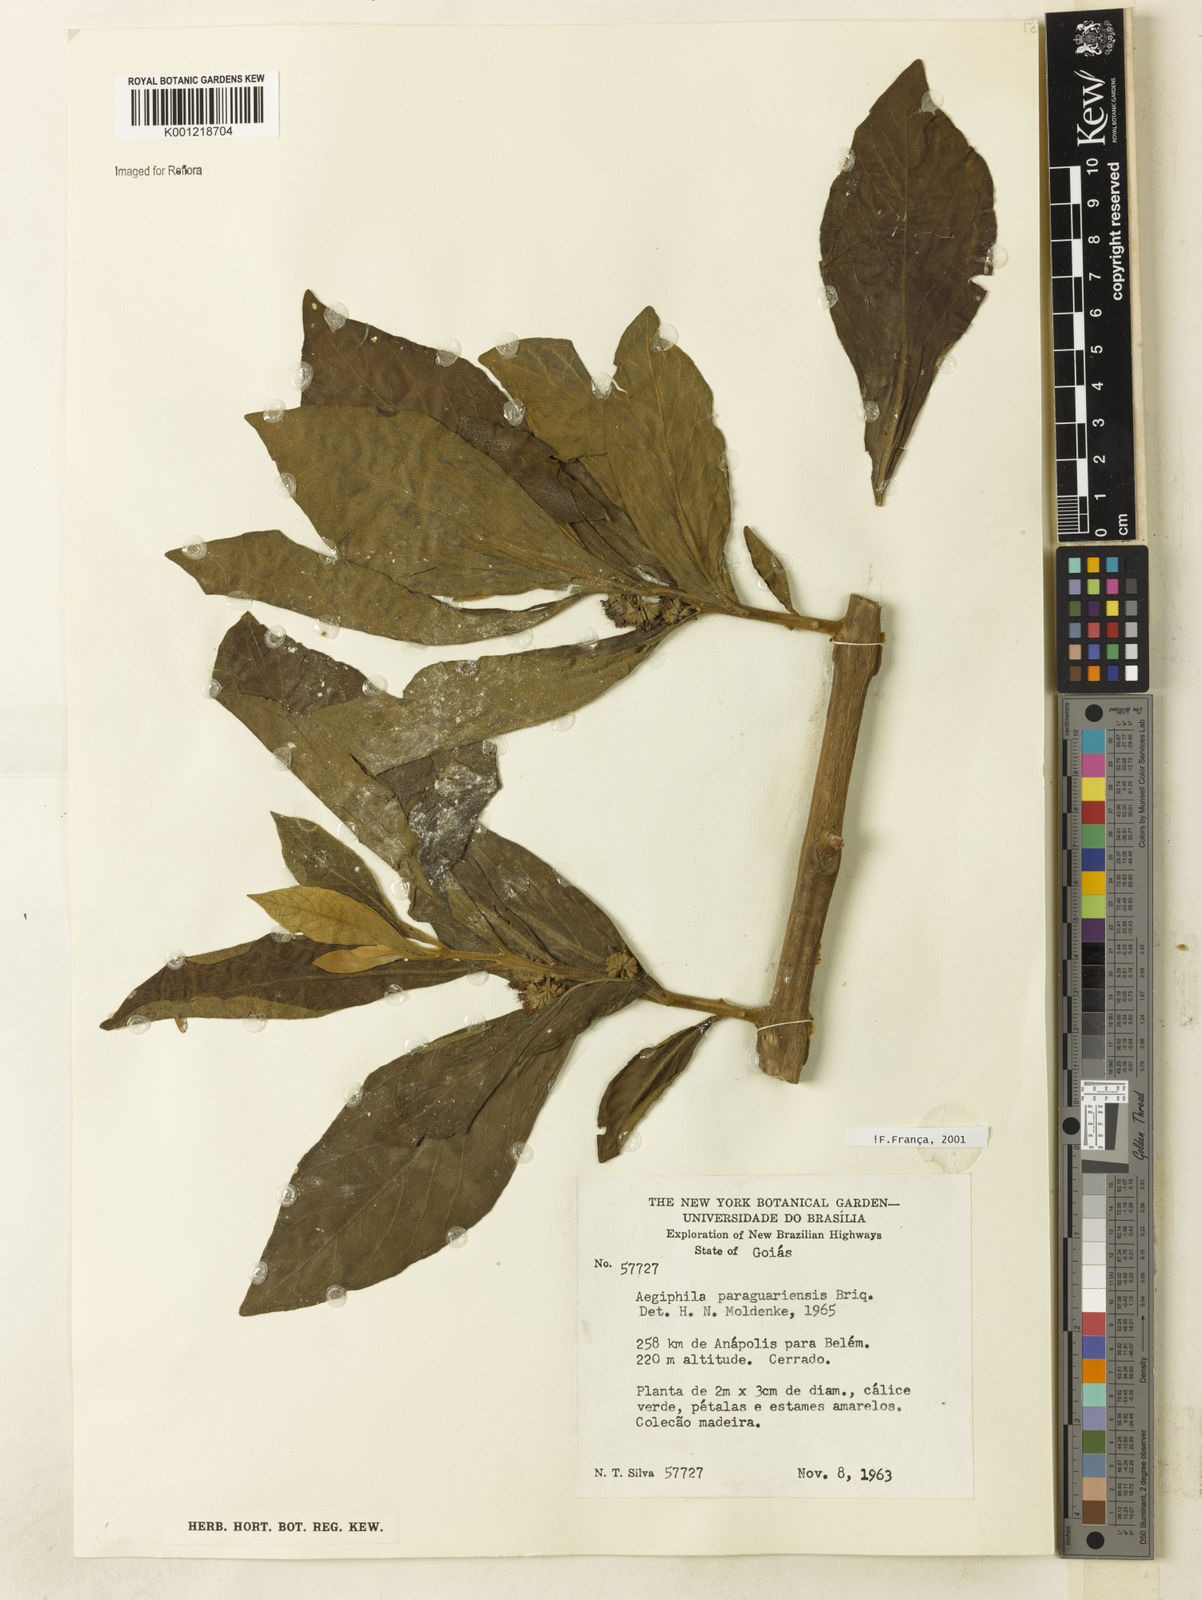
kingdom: Plantae
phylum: Tracheophyta
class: Magnoliopsida
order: Lamiales
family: Lamiaceae
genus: Aegiphila
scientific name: Aegiphila paraguariensis
